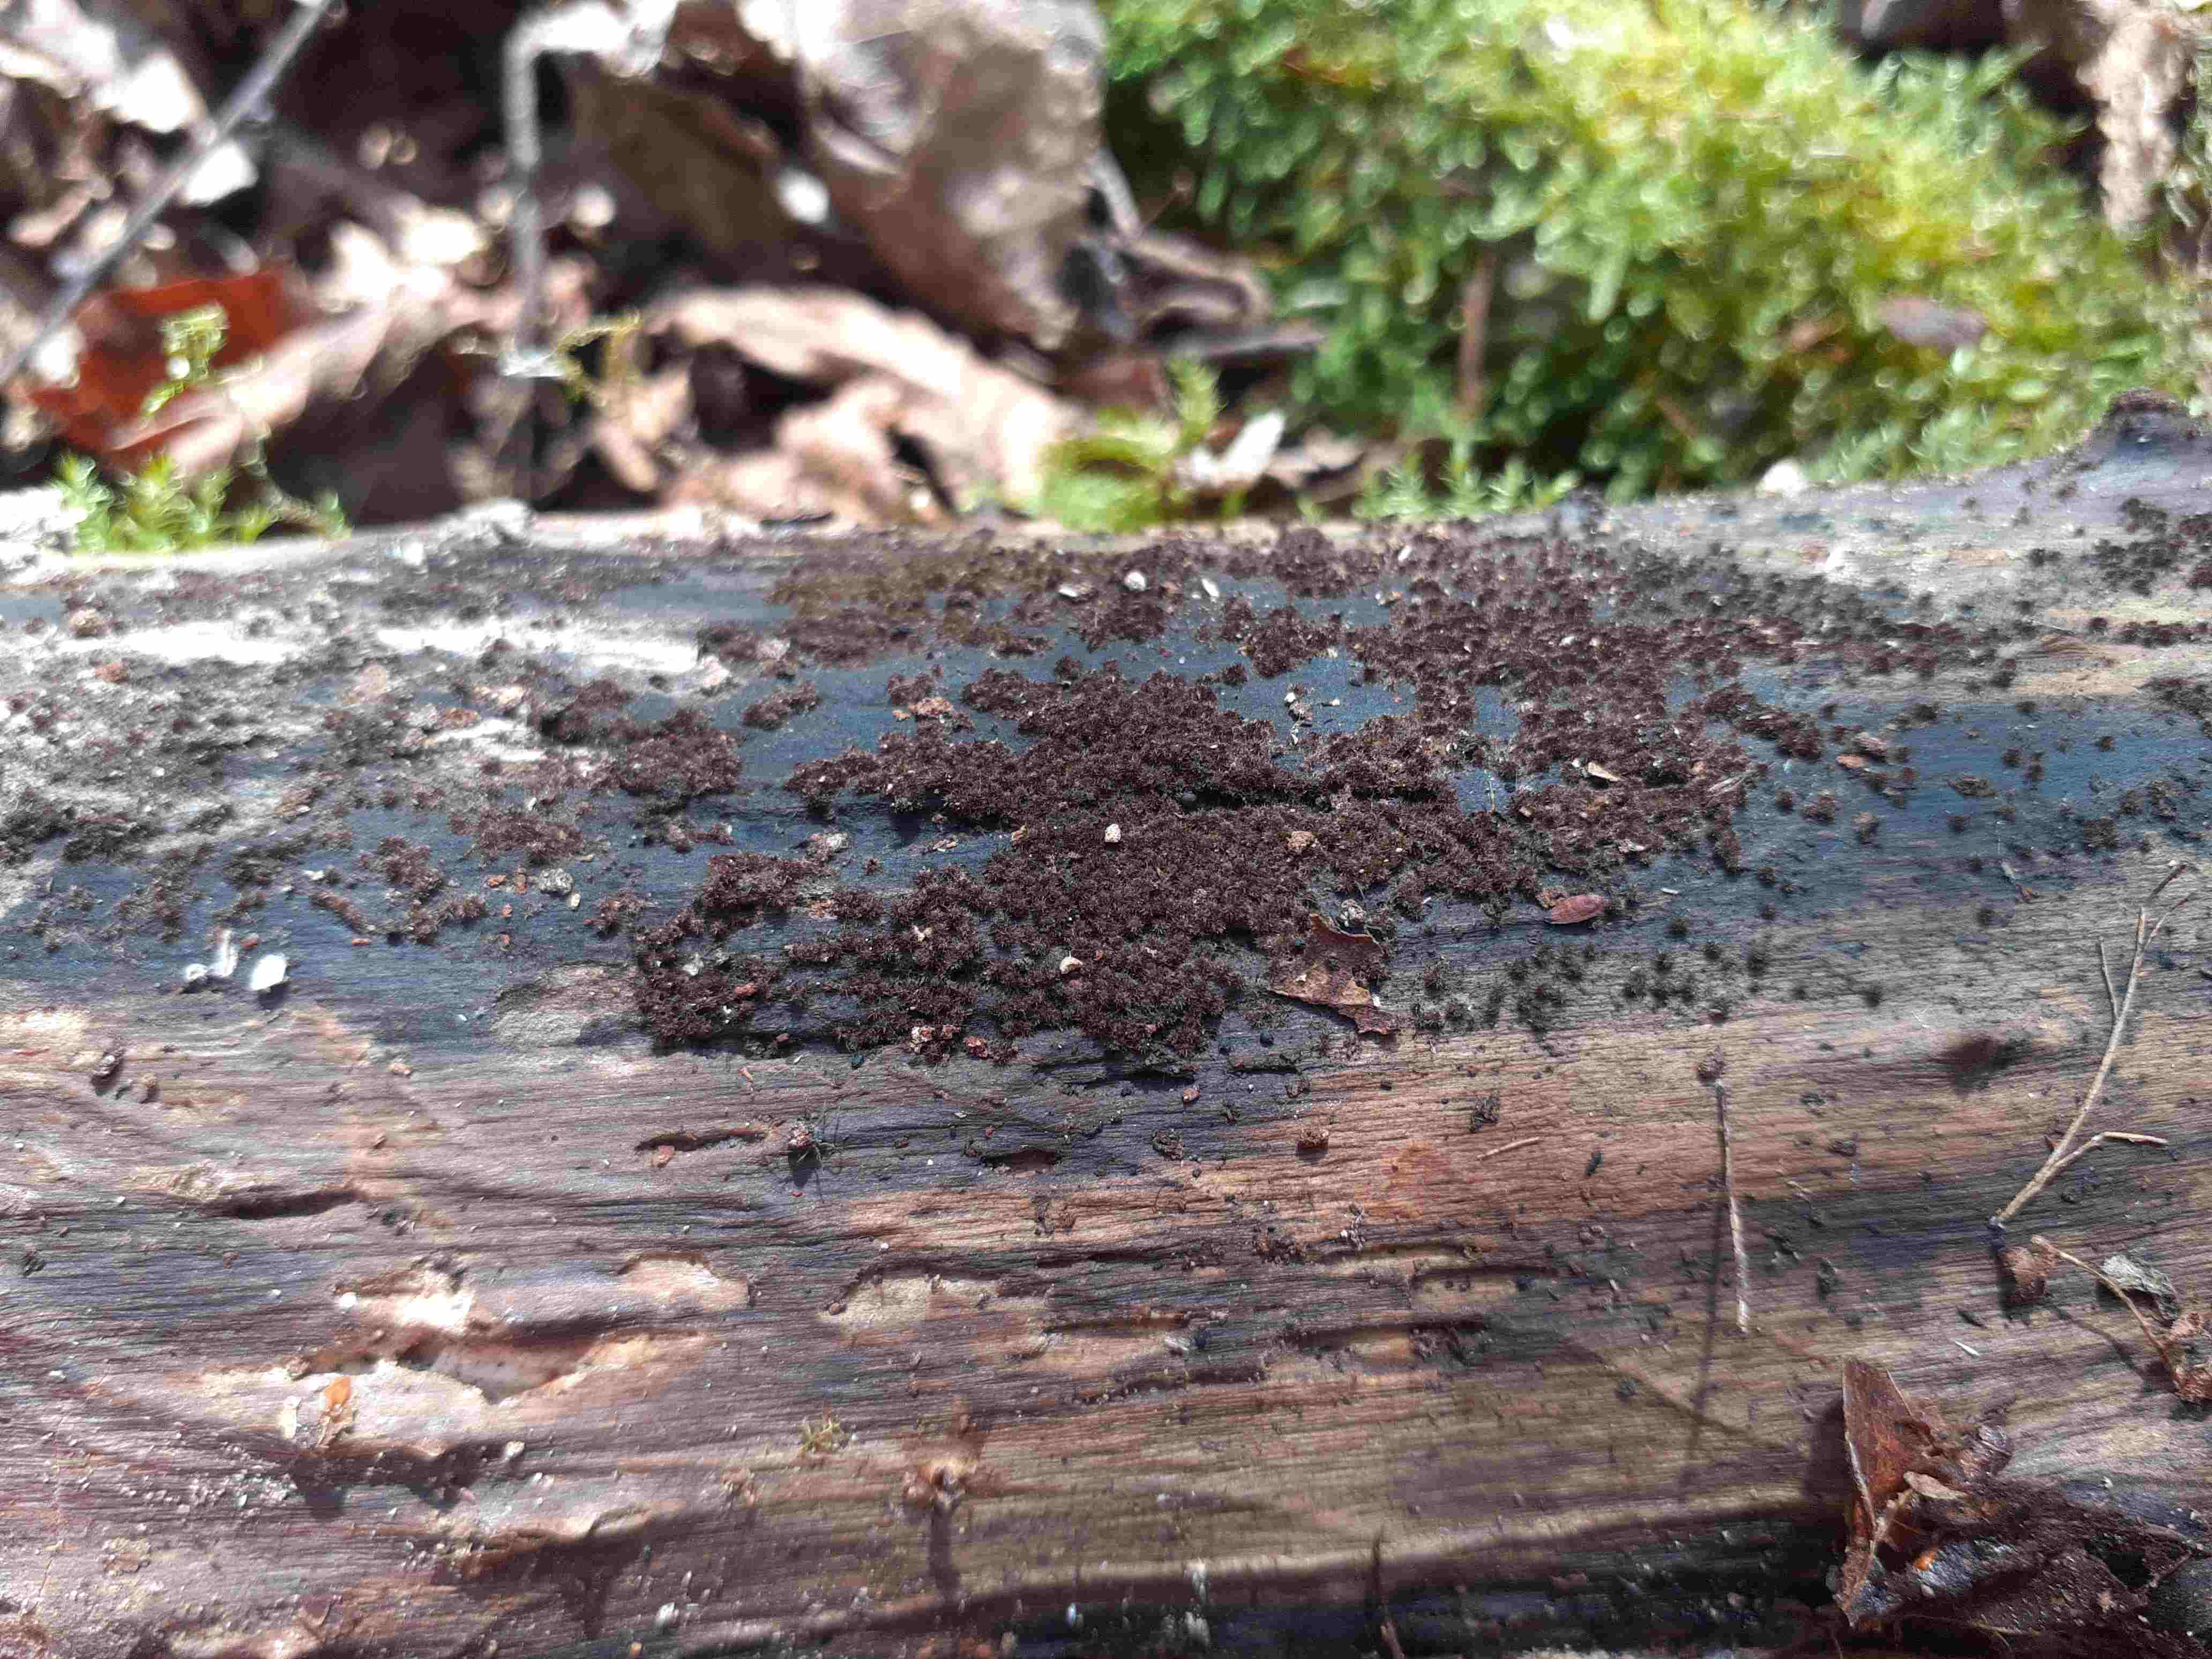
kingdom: Fungi
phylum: Ascomycota
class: Sordariomycetes
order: Sordariales
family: Helminthosphaeriaceae
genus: Echinosphaeria
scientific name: Echinosphaeria
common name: børstekerne
